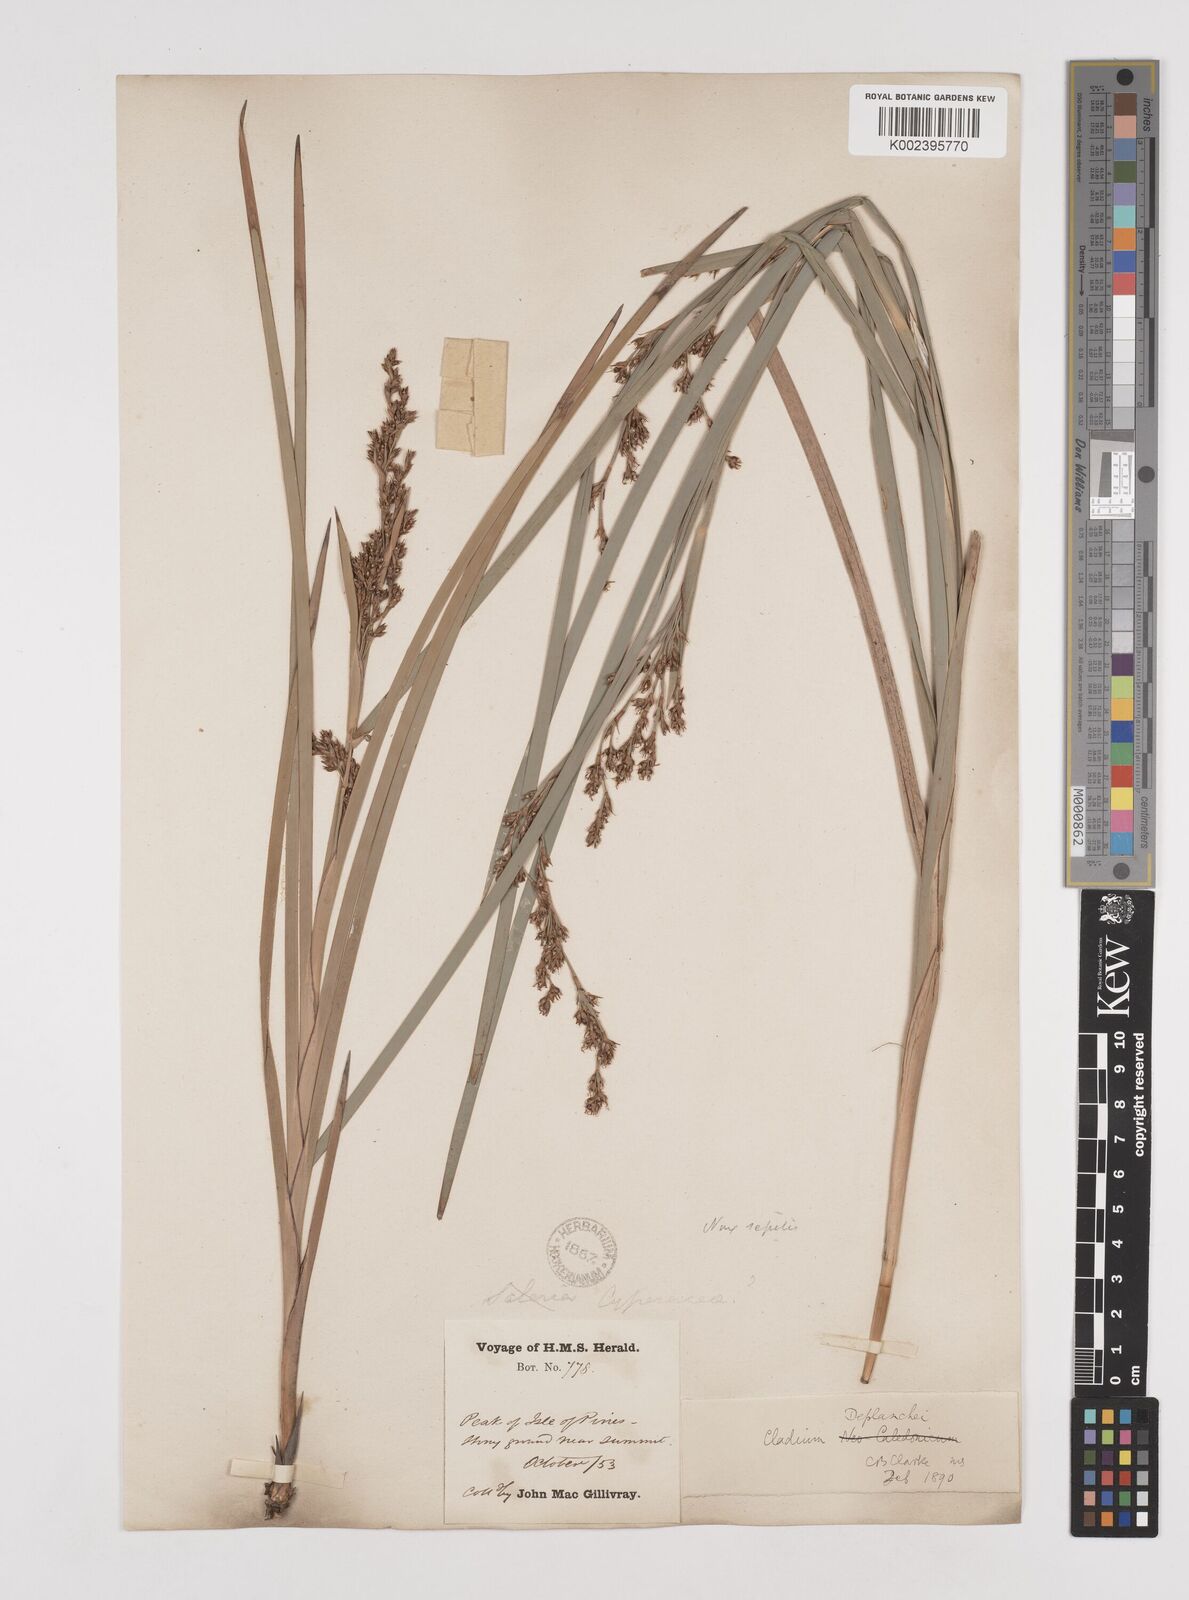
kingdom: Plantae
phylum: Tracheophyta
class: Liliopsida
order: Poales
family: Cyperaceae
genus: Machaerina
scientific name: Machaerina deplanchei
